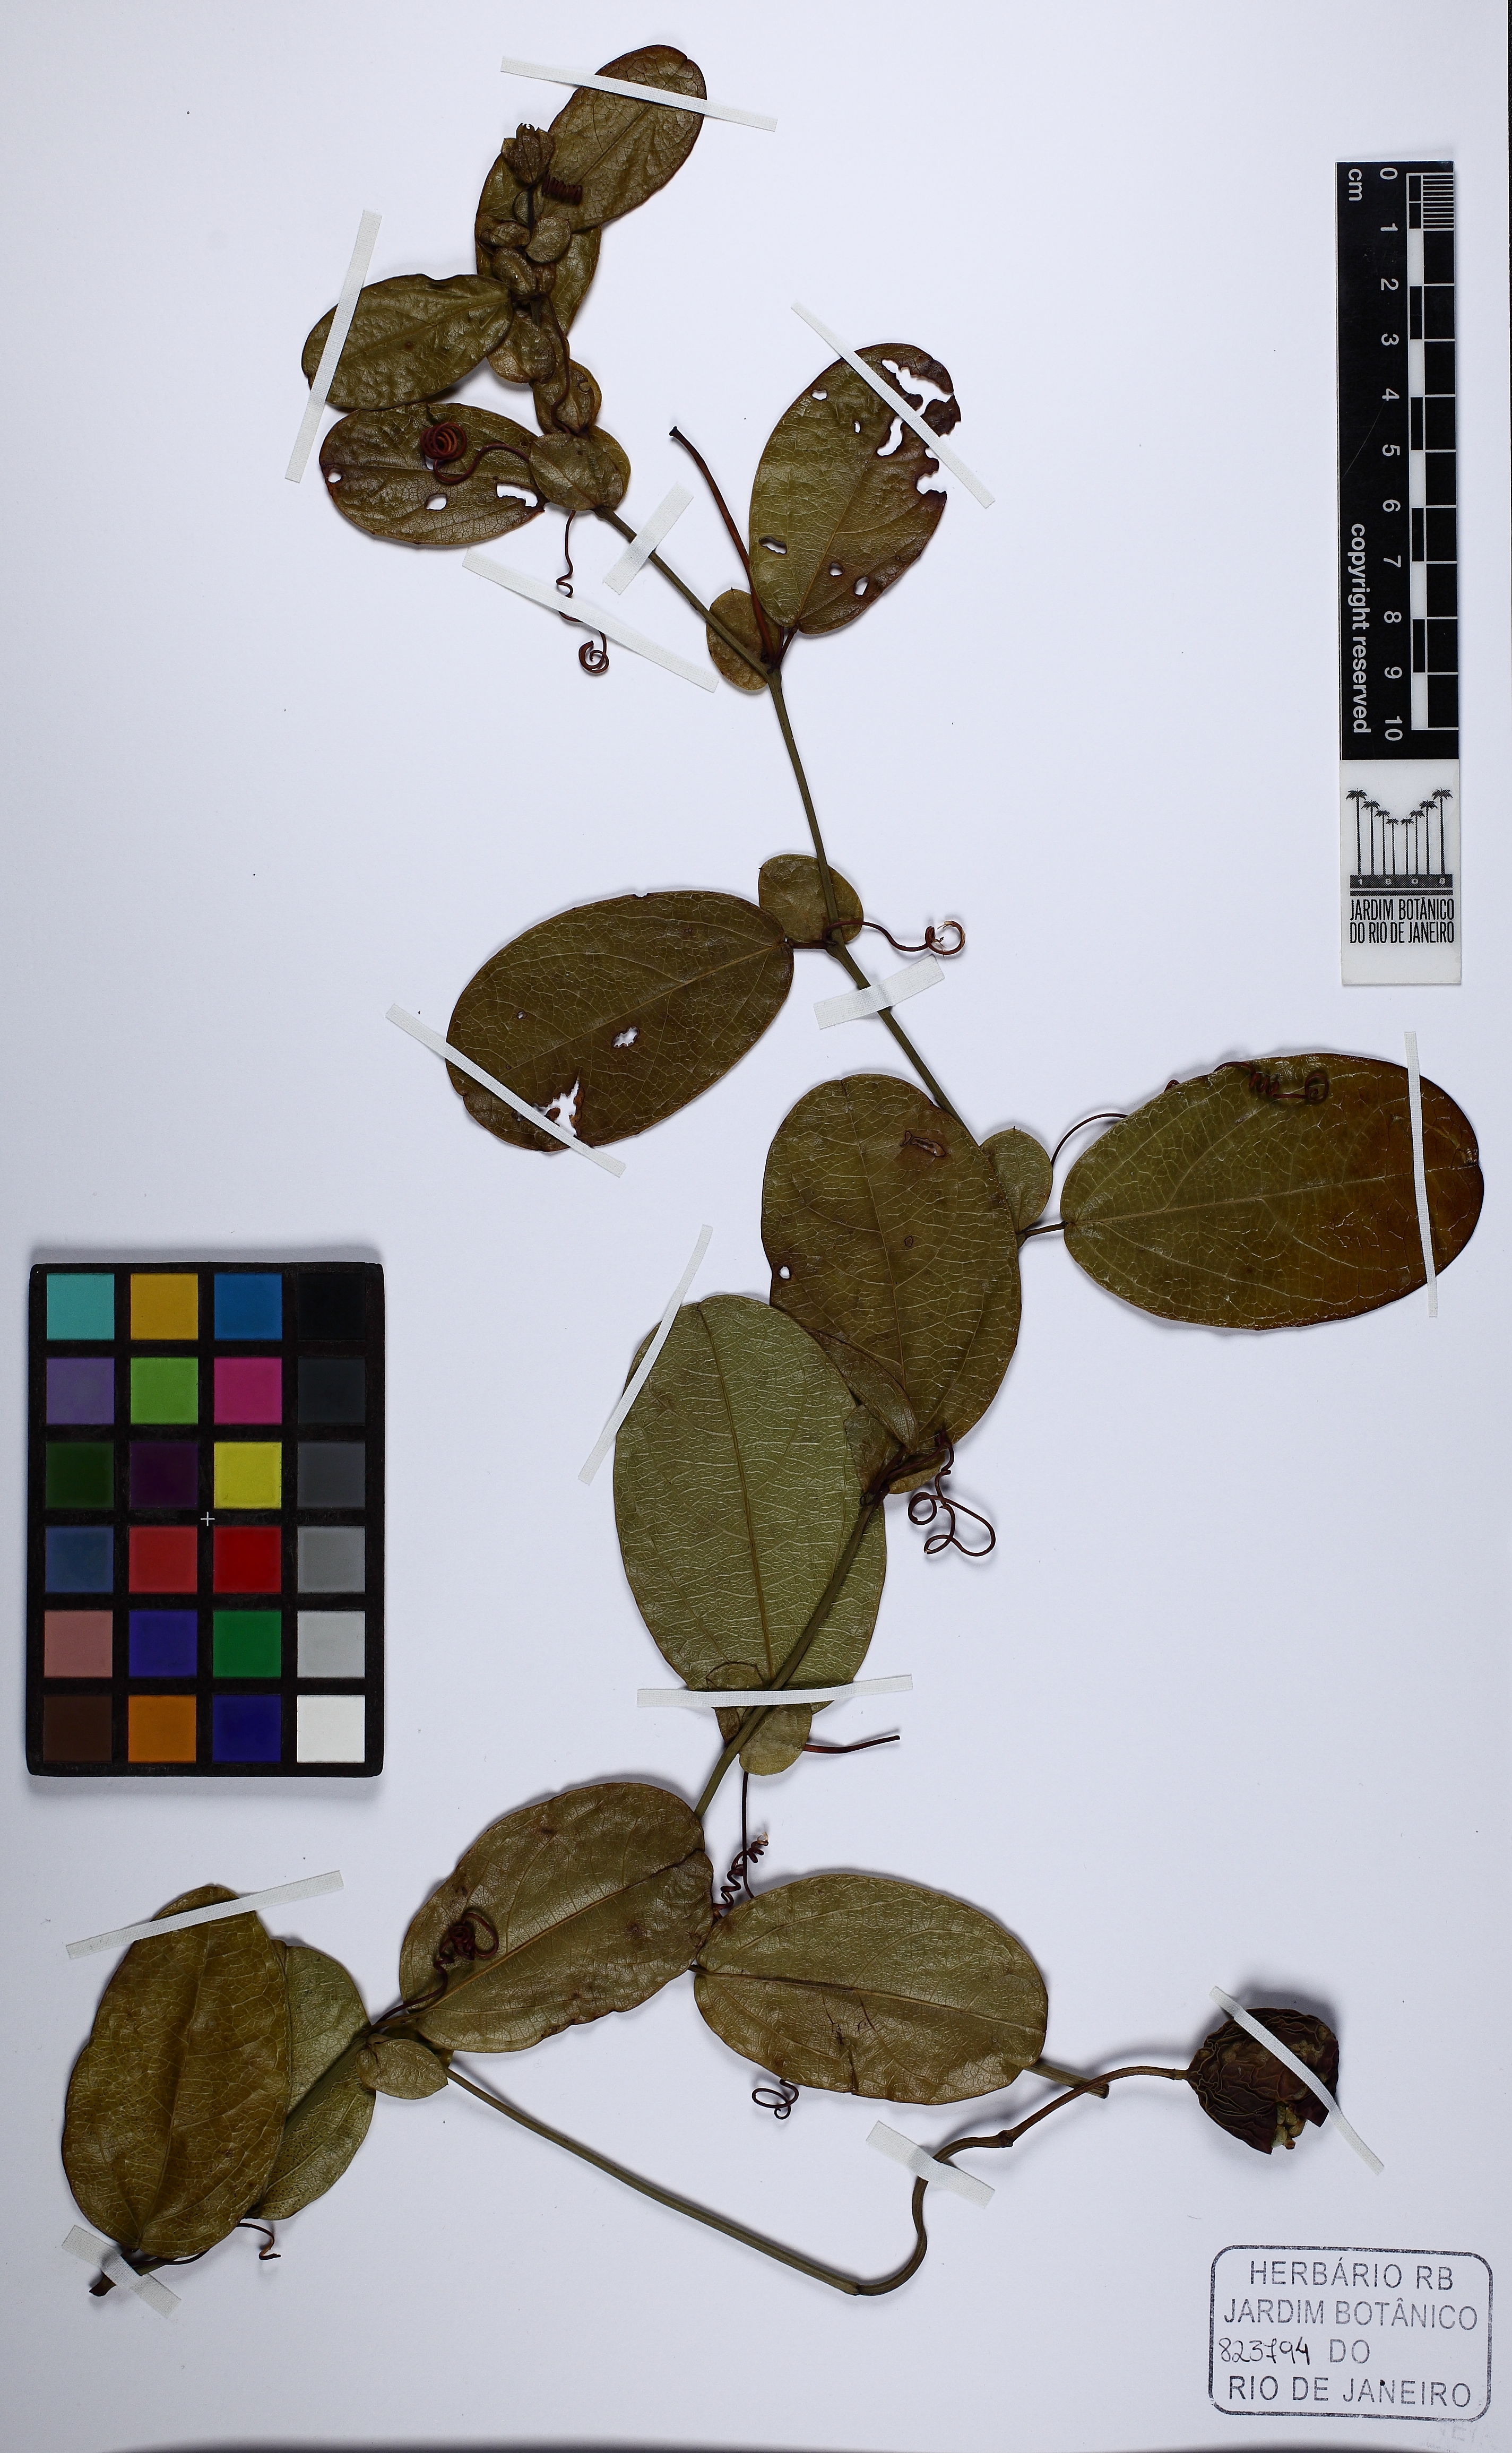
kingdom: Plantae
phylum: Tracheophyta
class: Magnoliopsida
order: Malpighiales
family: Passifloraceae
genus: Passiflora
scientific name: Passiflora
